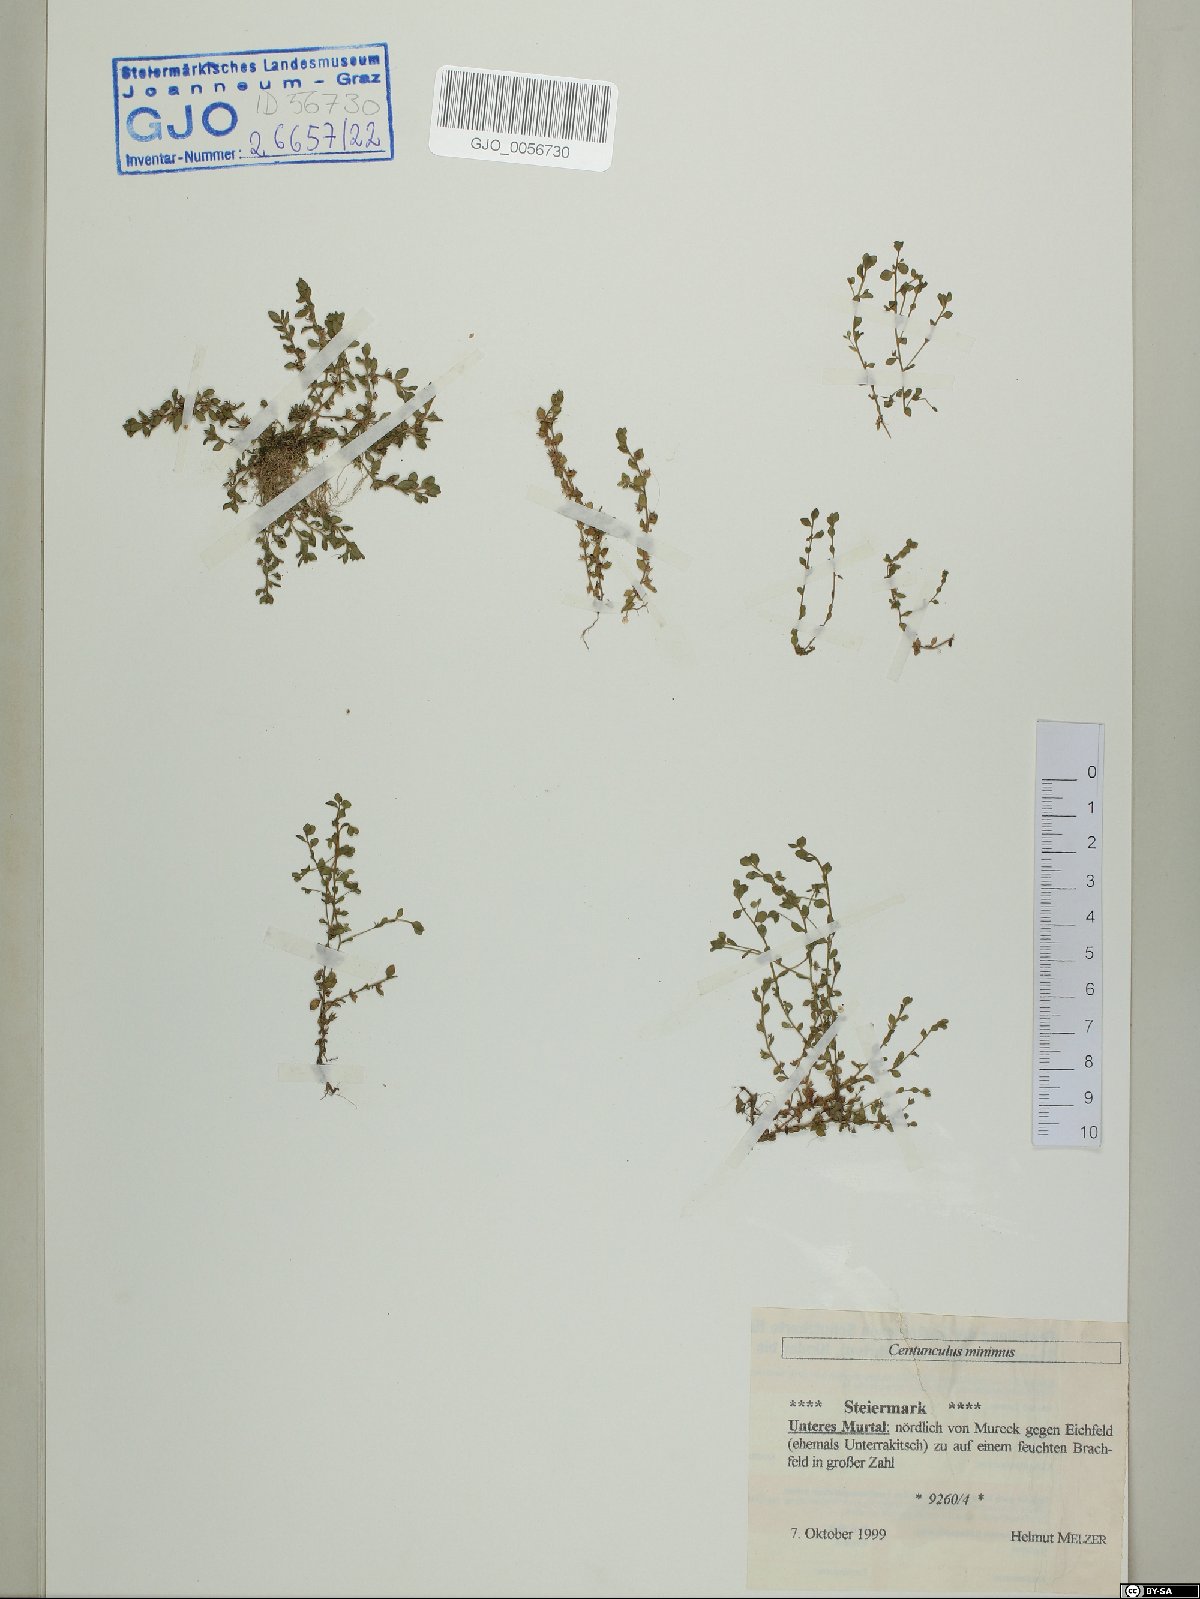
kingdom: Plantae
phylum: Tracheophyta
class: Magnoliopsida
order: Ericales
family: Primulaceae
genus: Lysimachia
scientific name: Lysimachia minima
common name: Chaffweed
